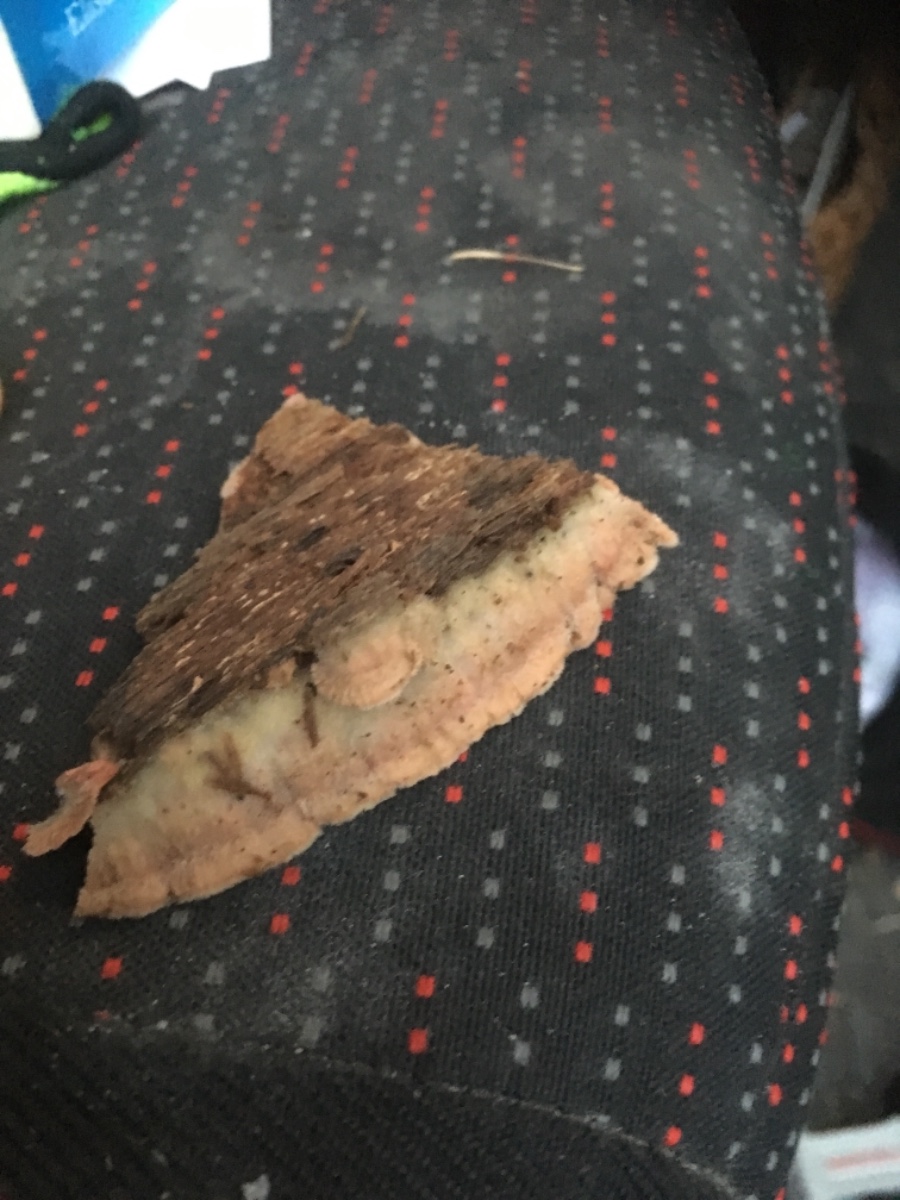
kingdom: Fungi
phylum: Basidiomycota
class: Agaricomycetes
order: Polyporales
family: Meruliaceae
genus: Phlebia
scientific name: Phlebia tremellosa
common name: bævrende åresvamp
